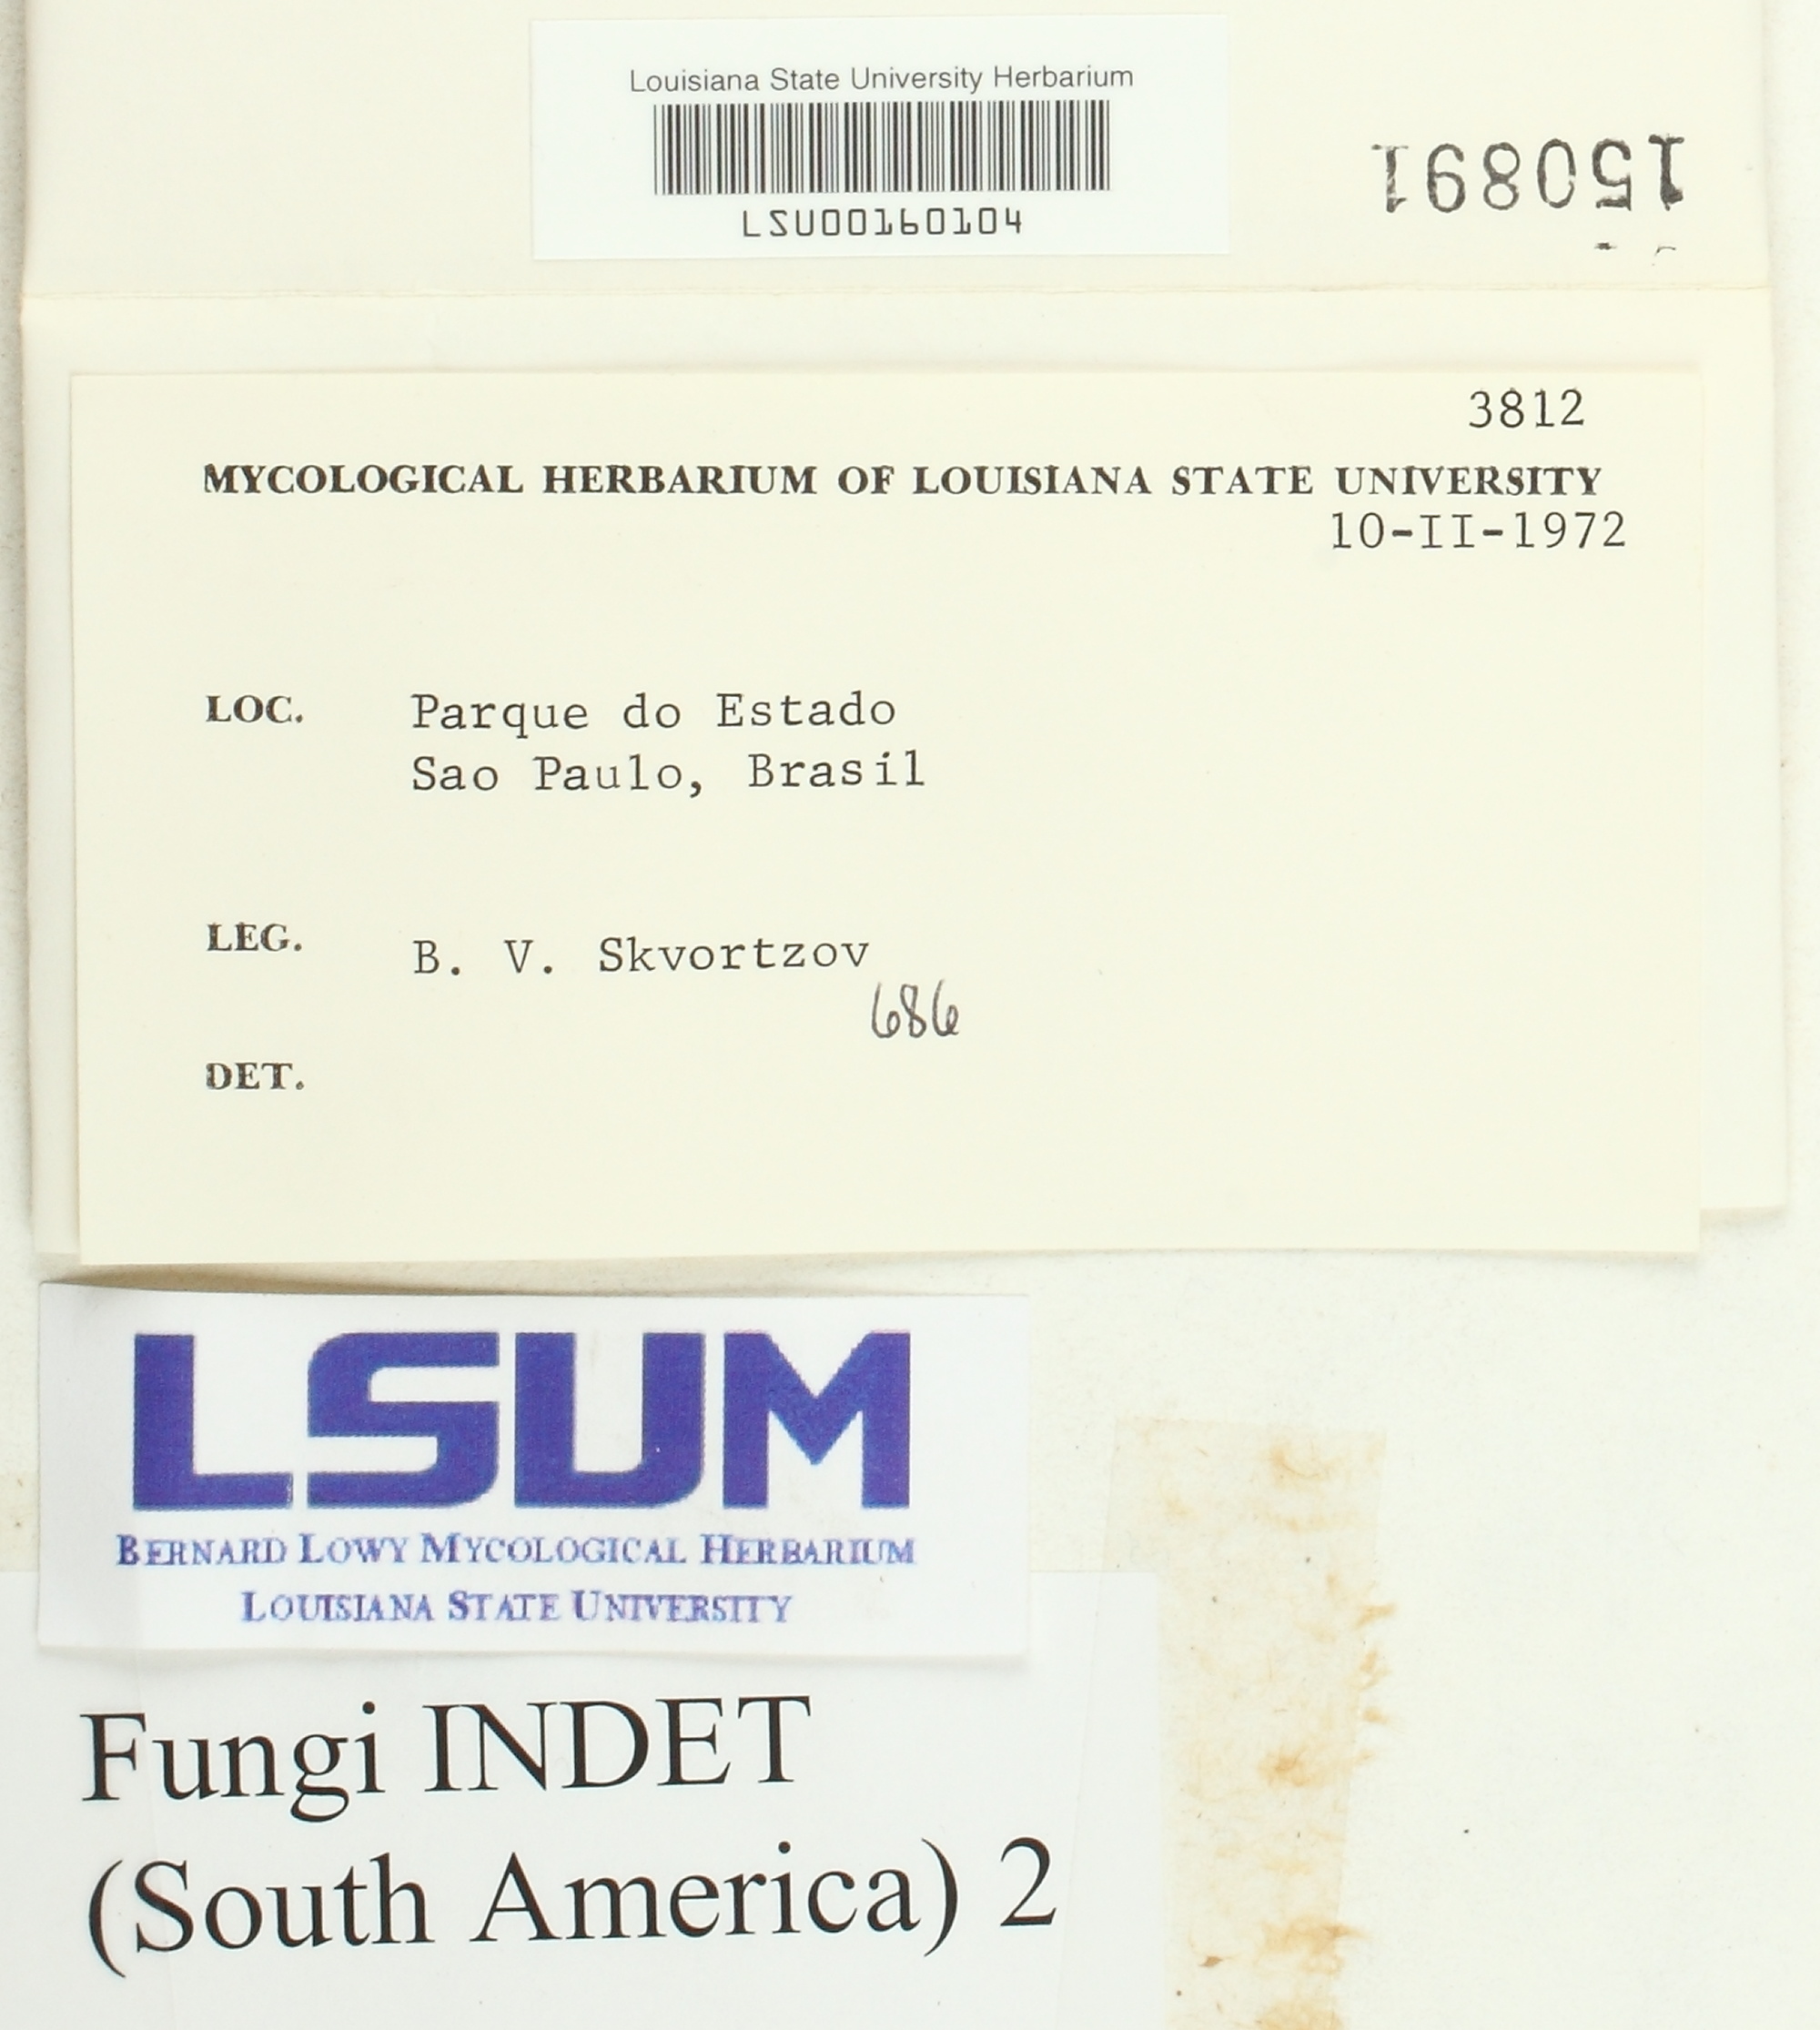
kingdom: Fungi
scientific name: Fungi
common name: Fungi
